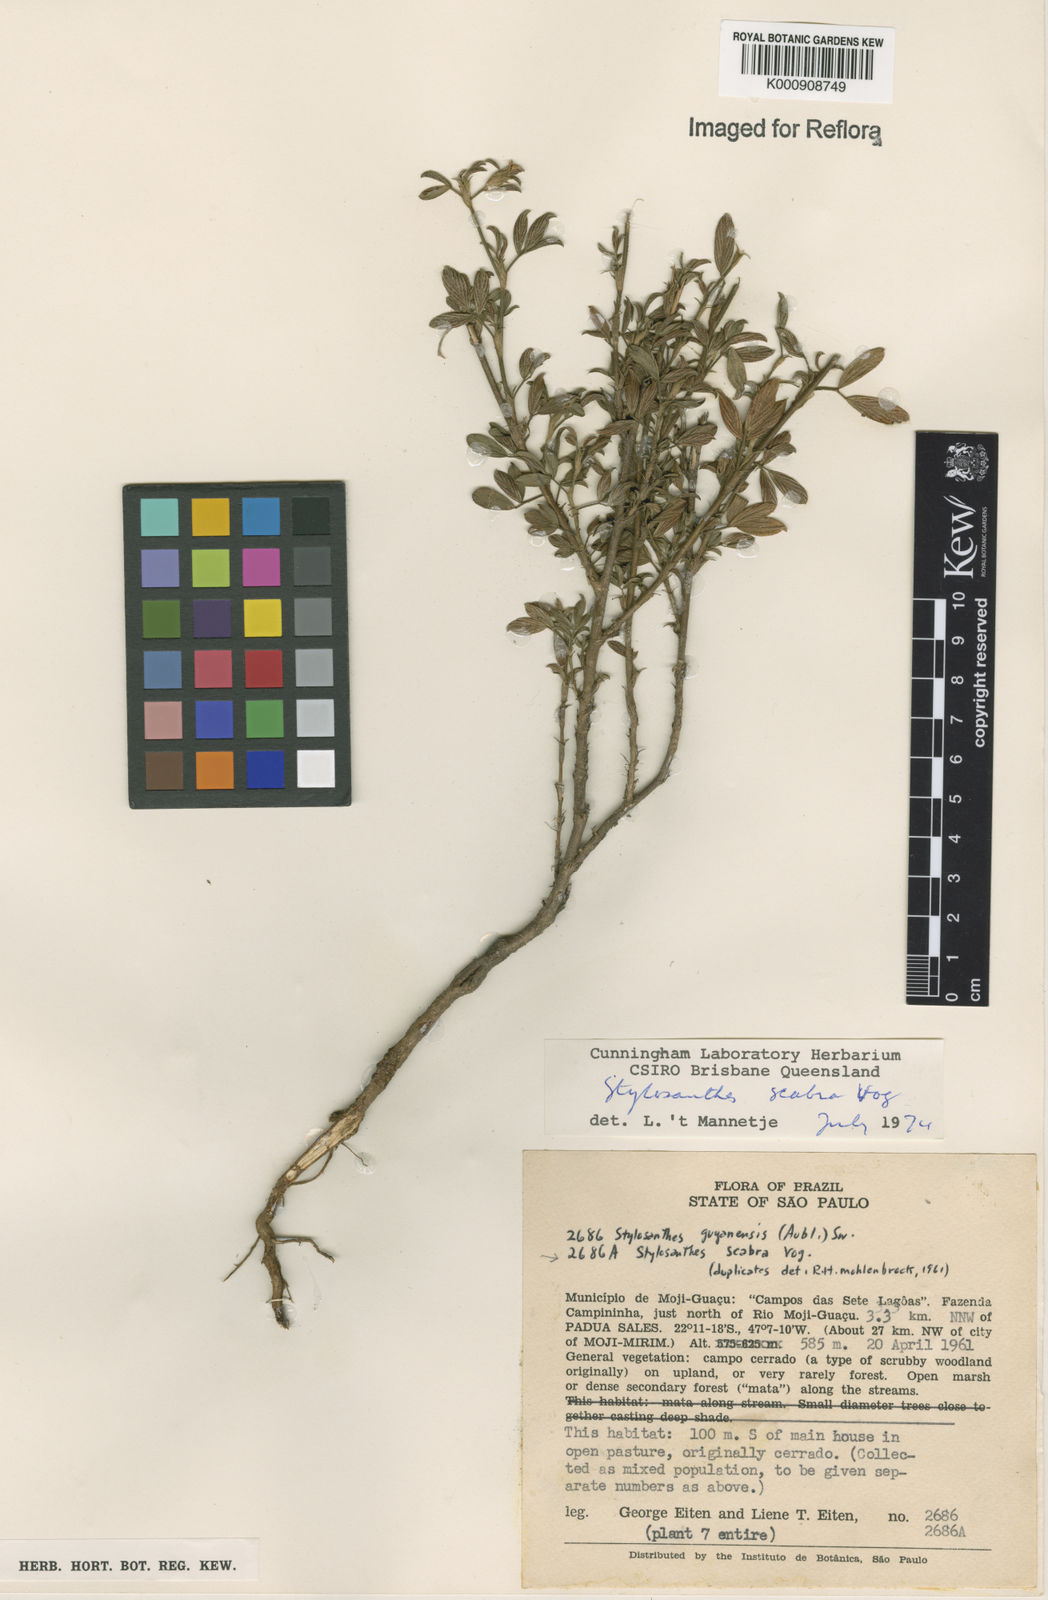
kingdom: Plantae
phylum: Tracheophyta
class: Magnoliopsida
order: Fabales
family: Fabaceae
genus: Stylosanthes
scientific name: Stylosanthes scabra
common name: Pencilflower
